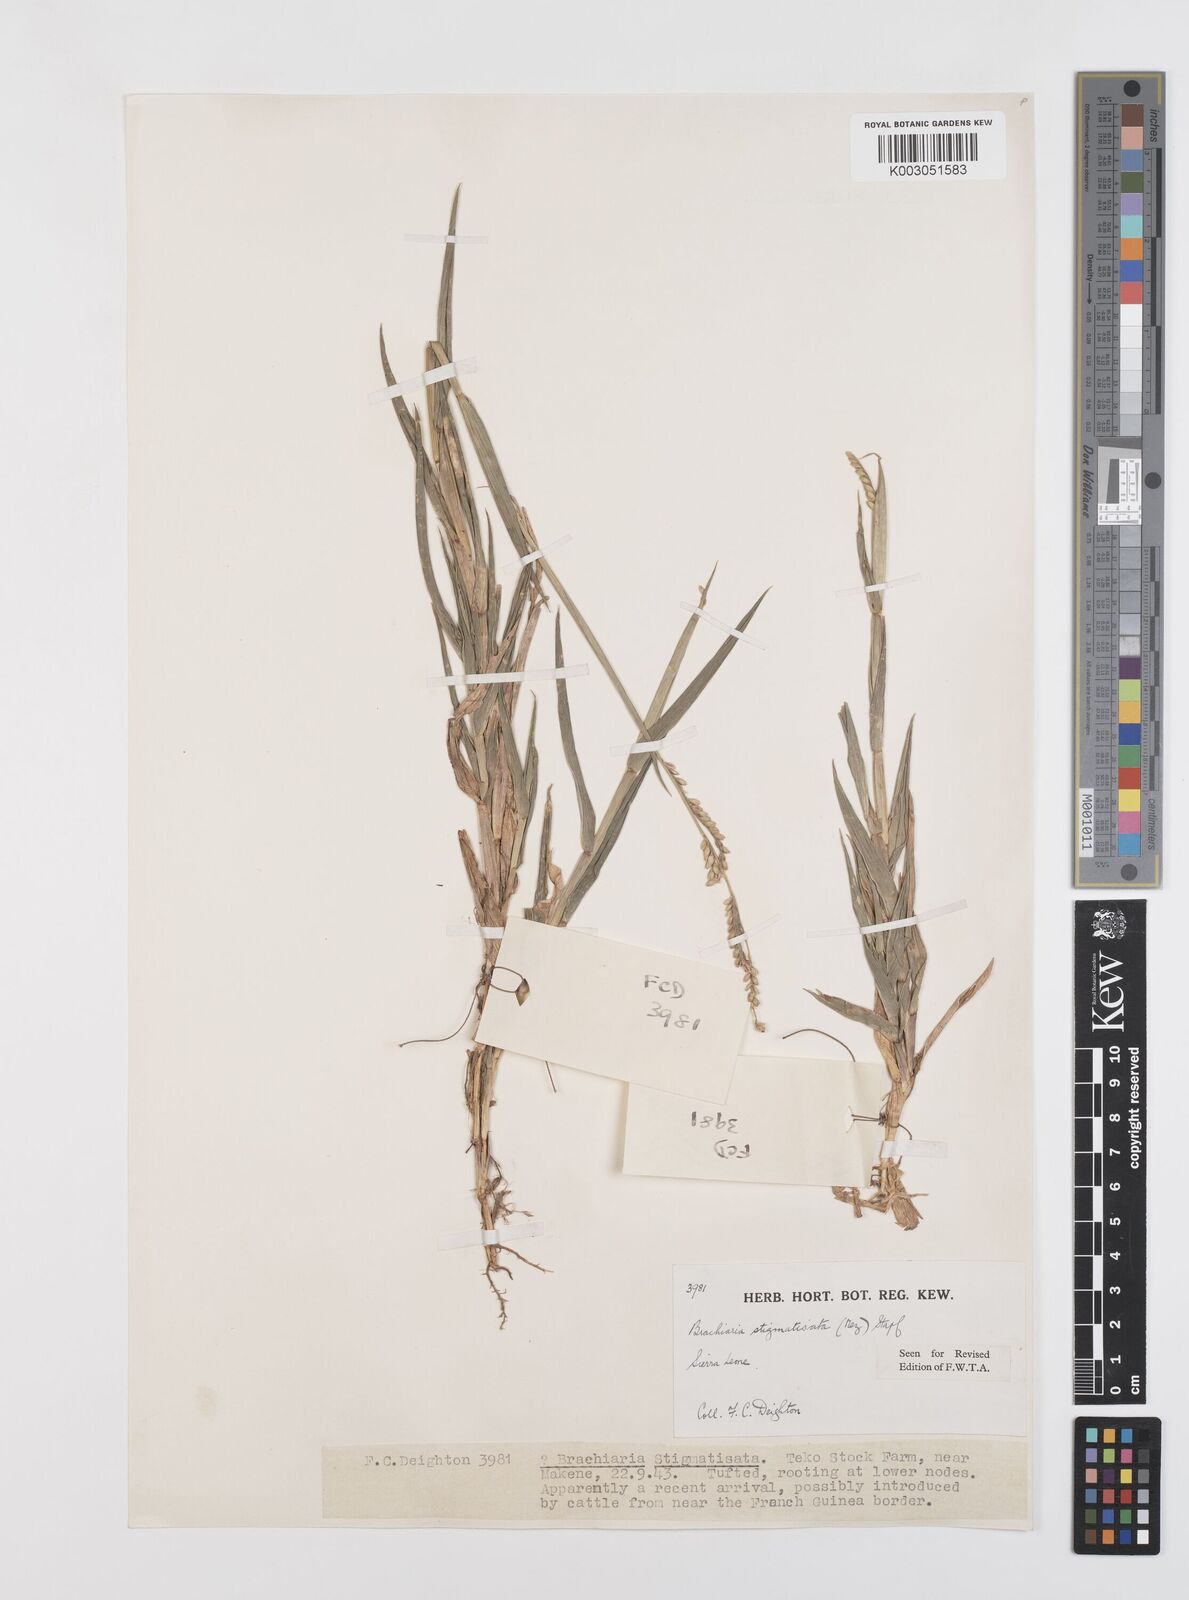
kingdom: Plantae
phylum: Tracheophyta
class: Liliopsida
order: Poales
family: Poaceae
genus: Urochloa
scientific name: Urochloa stigmatisata
